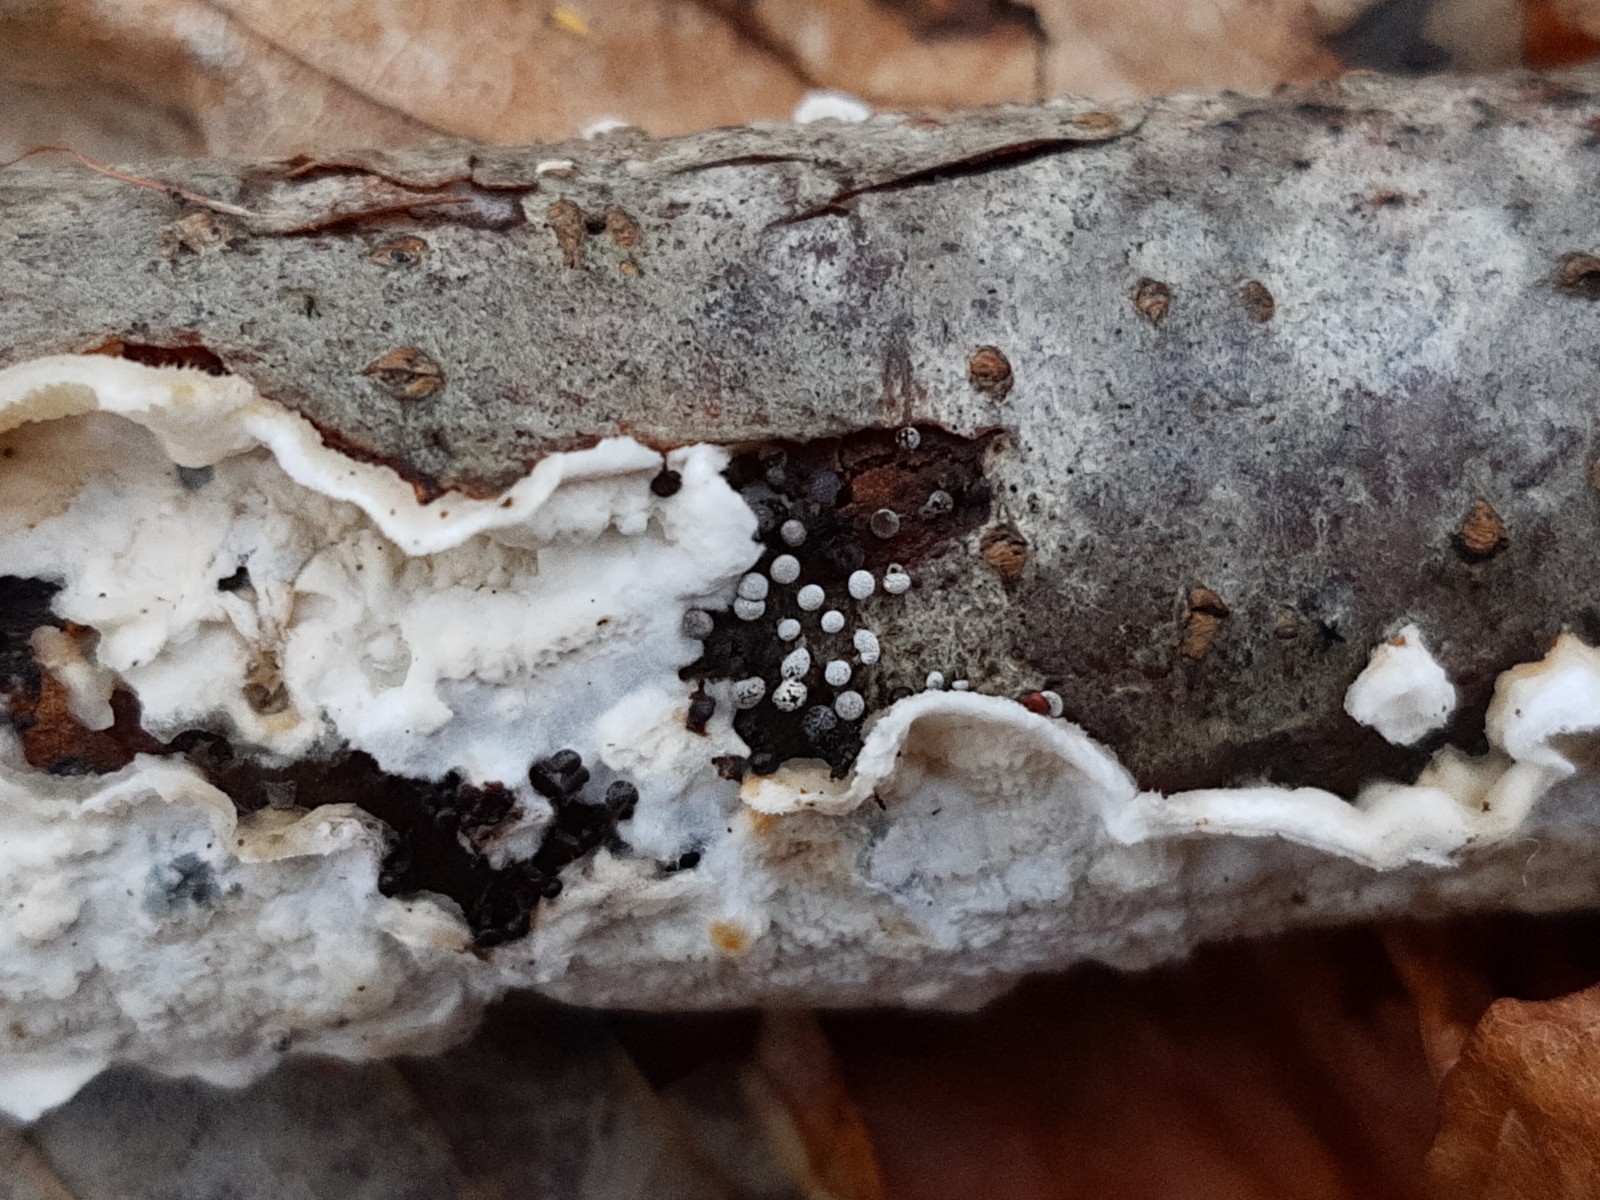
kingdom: Protozoa
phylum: Mycetozoa
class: Myxomycetes
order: Physarales
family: Physaraceae
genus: Physarum
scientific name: Physarum
